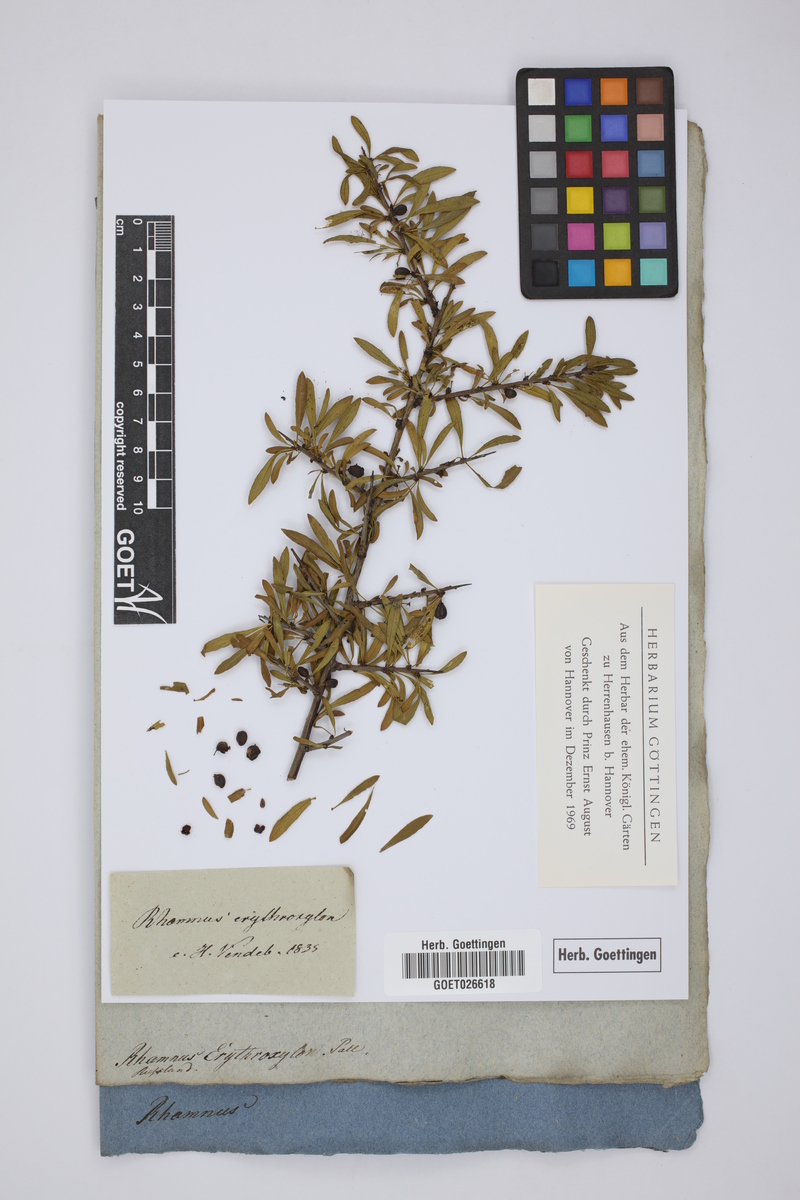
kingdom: Plantae
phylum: Tracheophyta
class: Magnoliopsida
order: Rosales
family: Rhamnaceae
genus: Rhamnus
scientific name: Rhamnus erythroxylum
